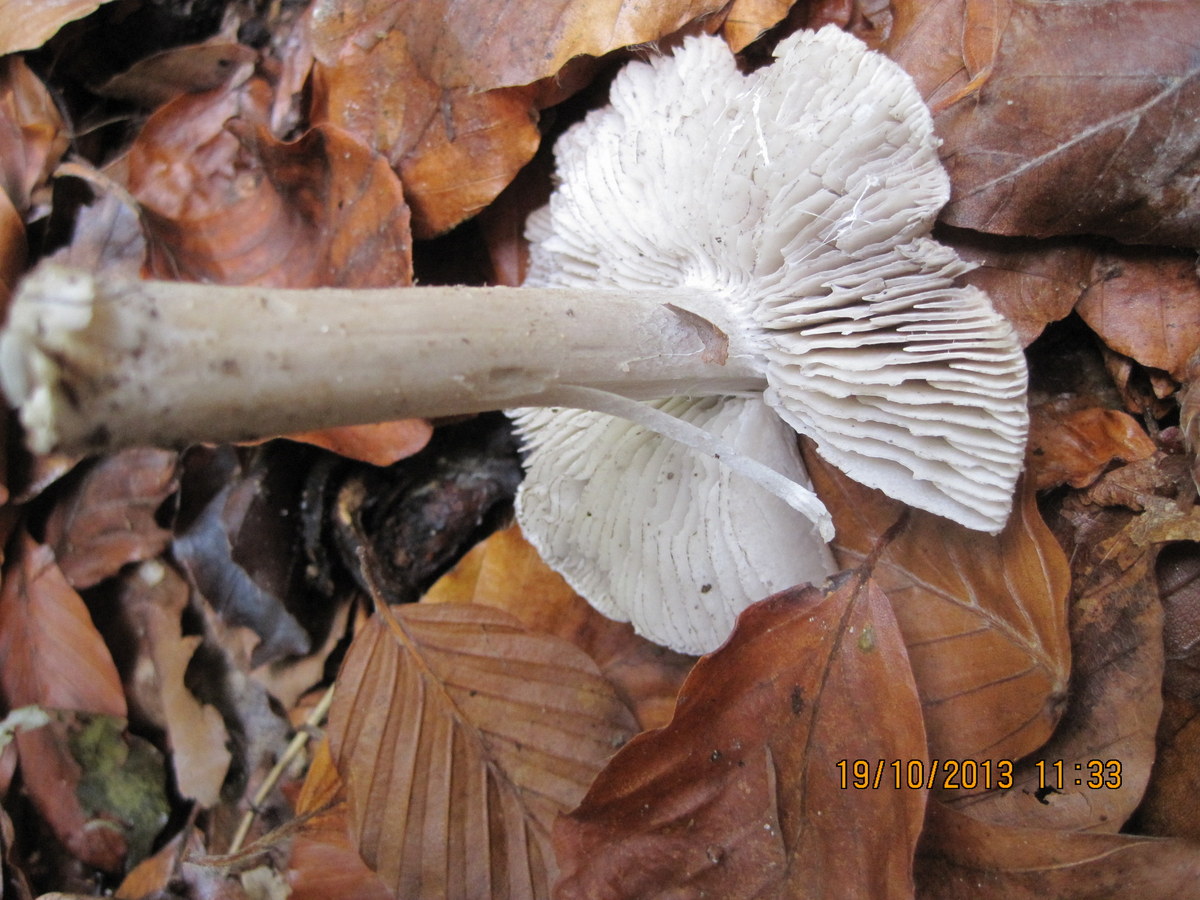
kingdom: Fungi
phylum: Basidiomycota
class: Agaricomycetes
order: Agaricales
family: Tricholomataceae
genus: Tricholoma
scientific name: Tricholoma sciodes
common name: stribet ridderhat
